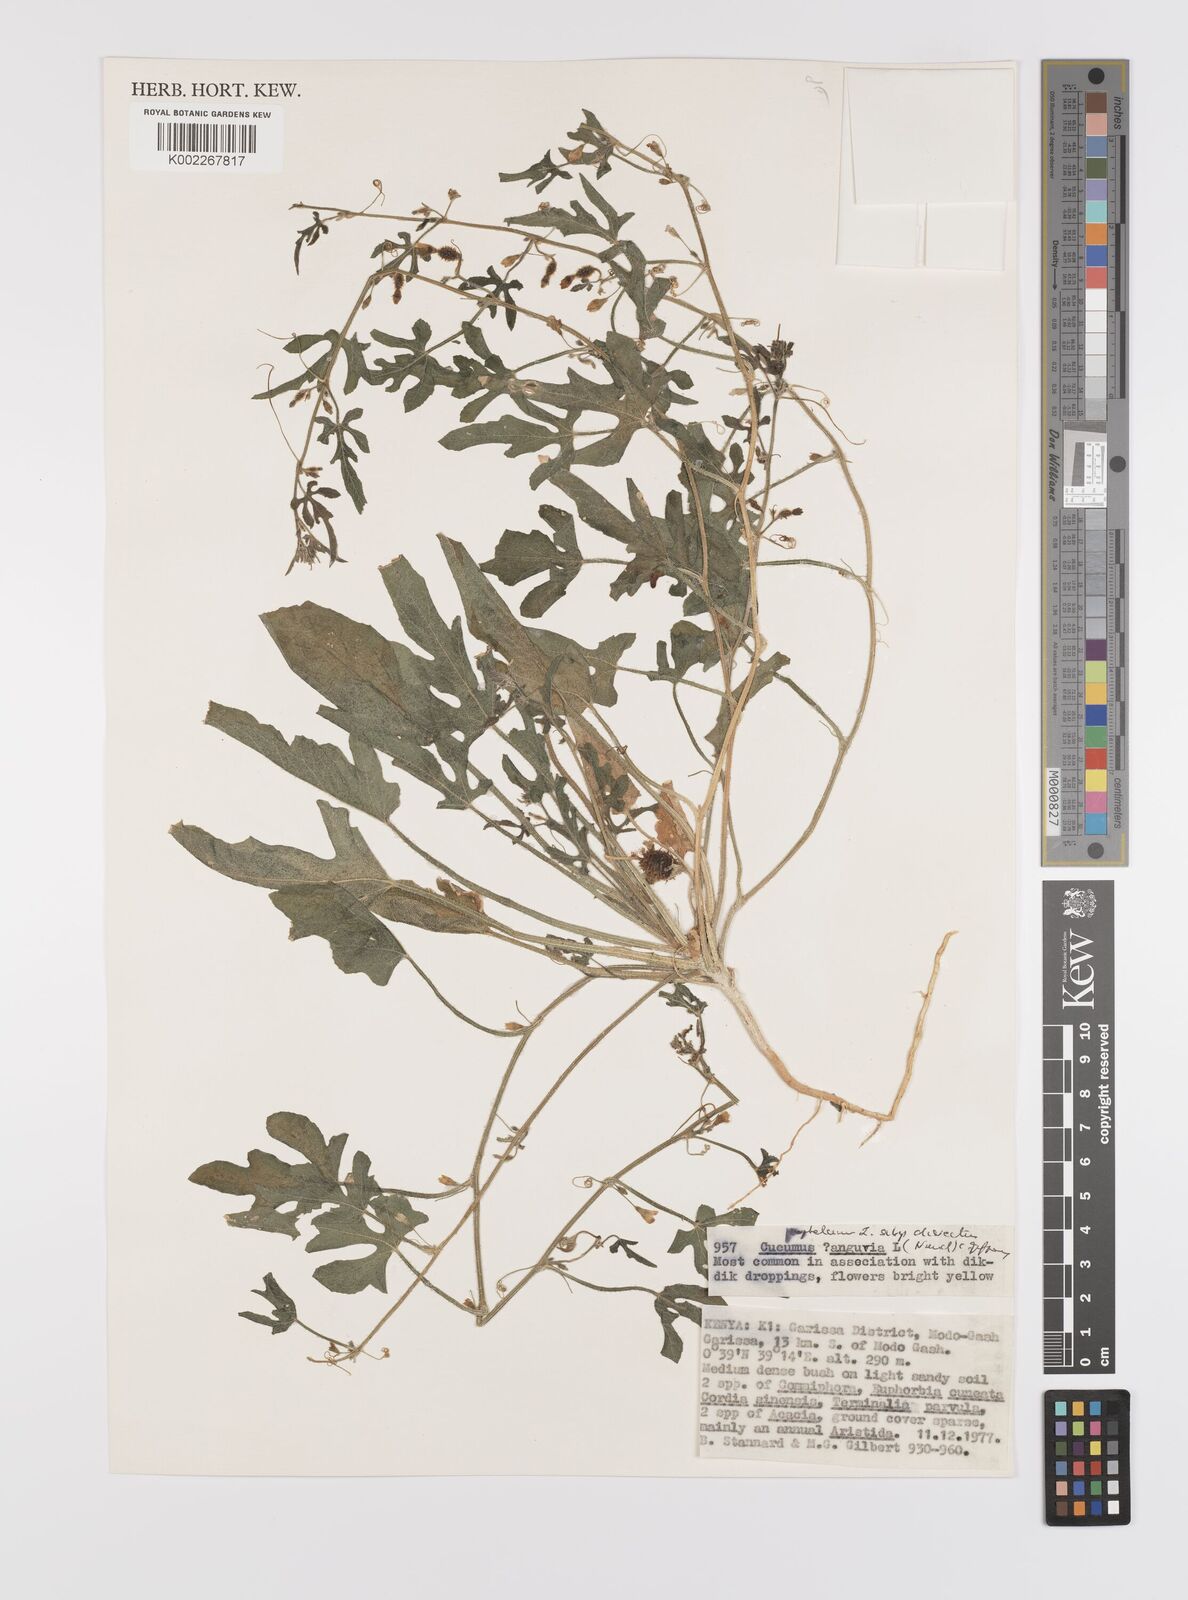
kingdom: Plantae
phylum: Tracheophyta
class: Magnoliopsida
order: Cucurbitales
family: Cucurbitaceae
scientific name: Cucurbitaceae
